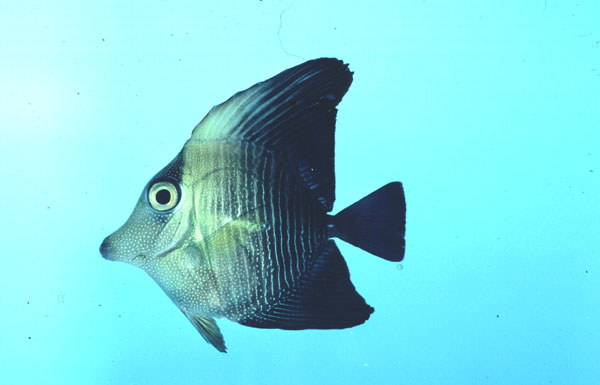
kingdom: Animalia
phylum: Chordata
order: Perciformes
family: Acanthuridae
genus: Zebrasoma
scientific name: Zebrasoma scopas
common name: Twotone tang
